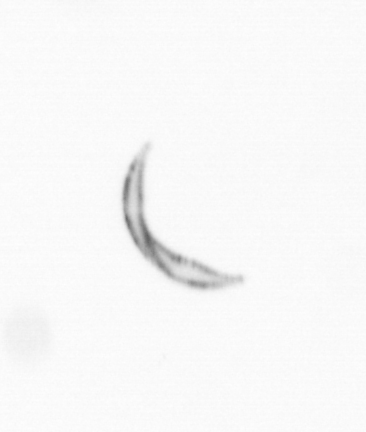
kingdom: Chromista
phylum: Ochrophyta
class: Bacillariophyceae
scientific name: Bacillariophyceae
